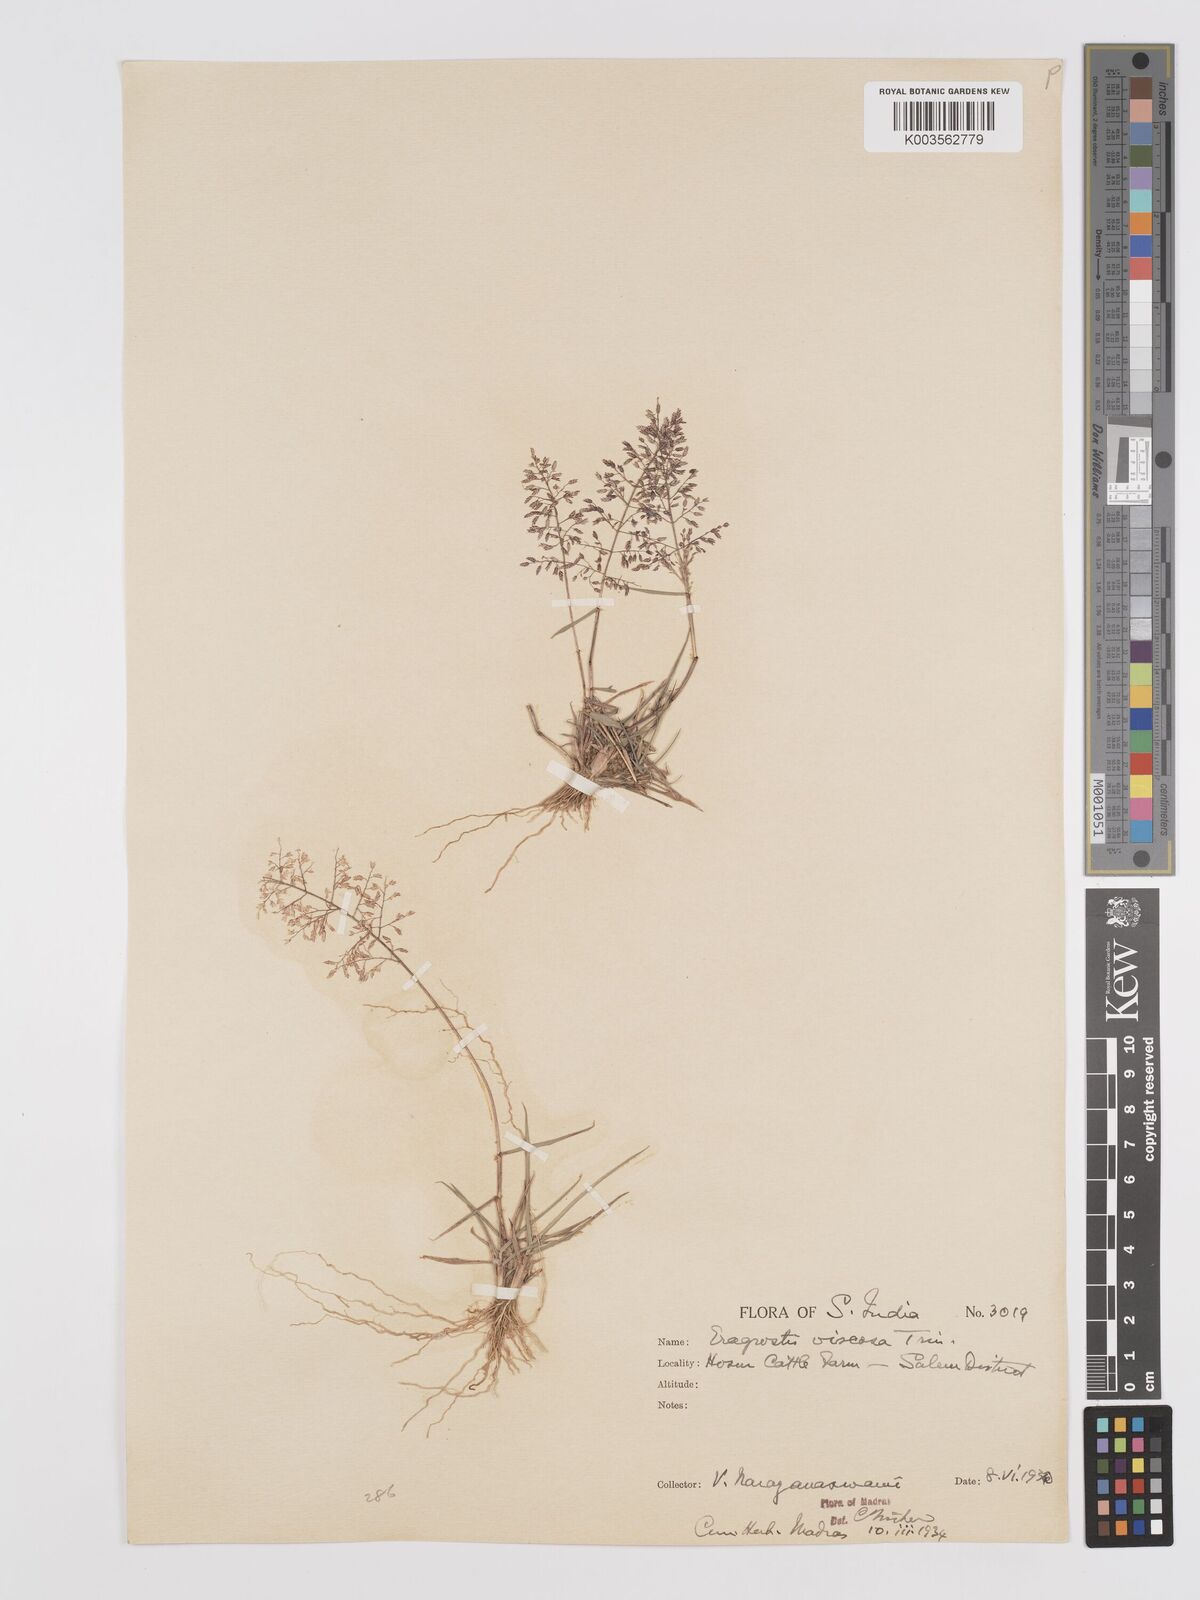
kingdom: Plantae
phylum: Tracheophyta
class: Liliopsida
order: Poales
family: Poaceae
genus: Eragrostis
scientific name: Eragrostis viscosa
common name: Sticky love grass
